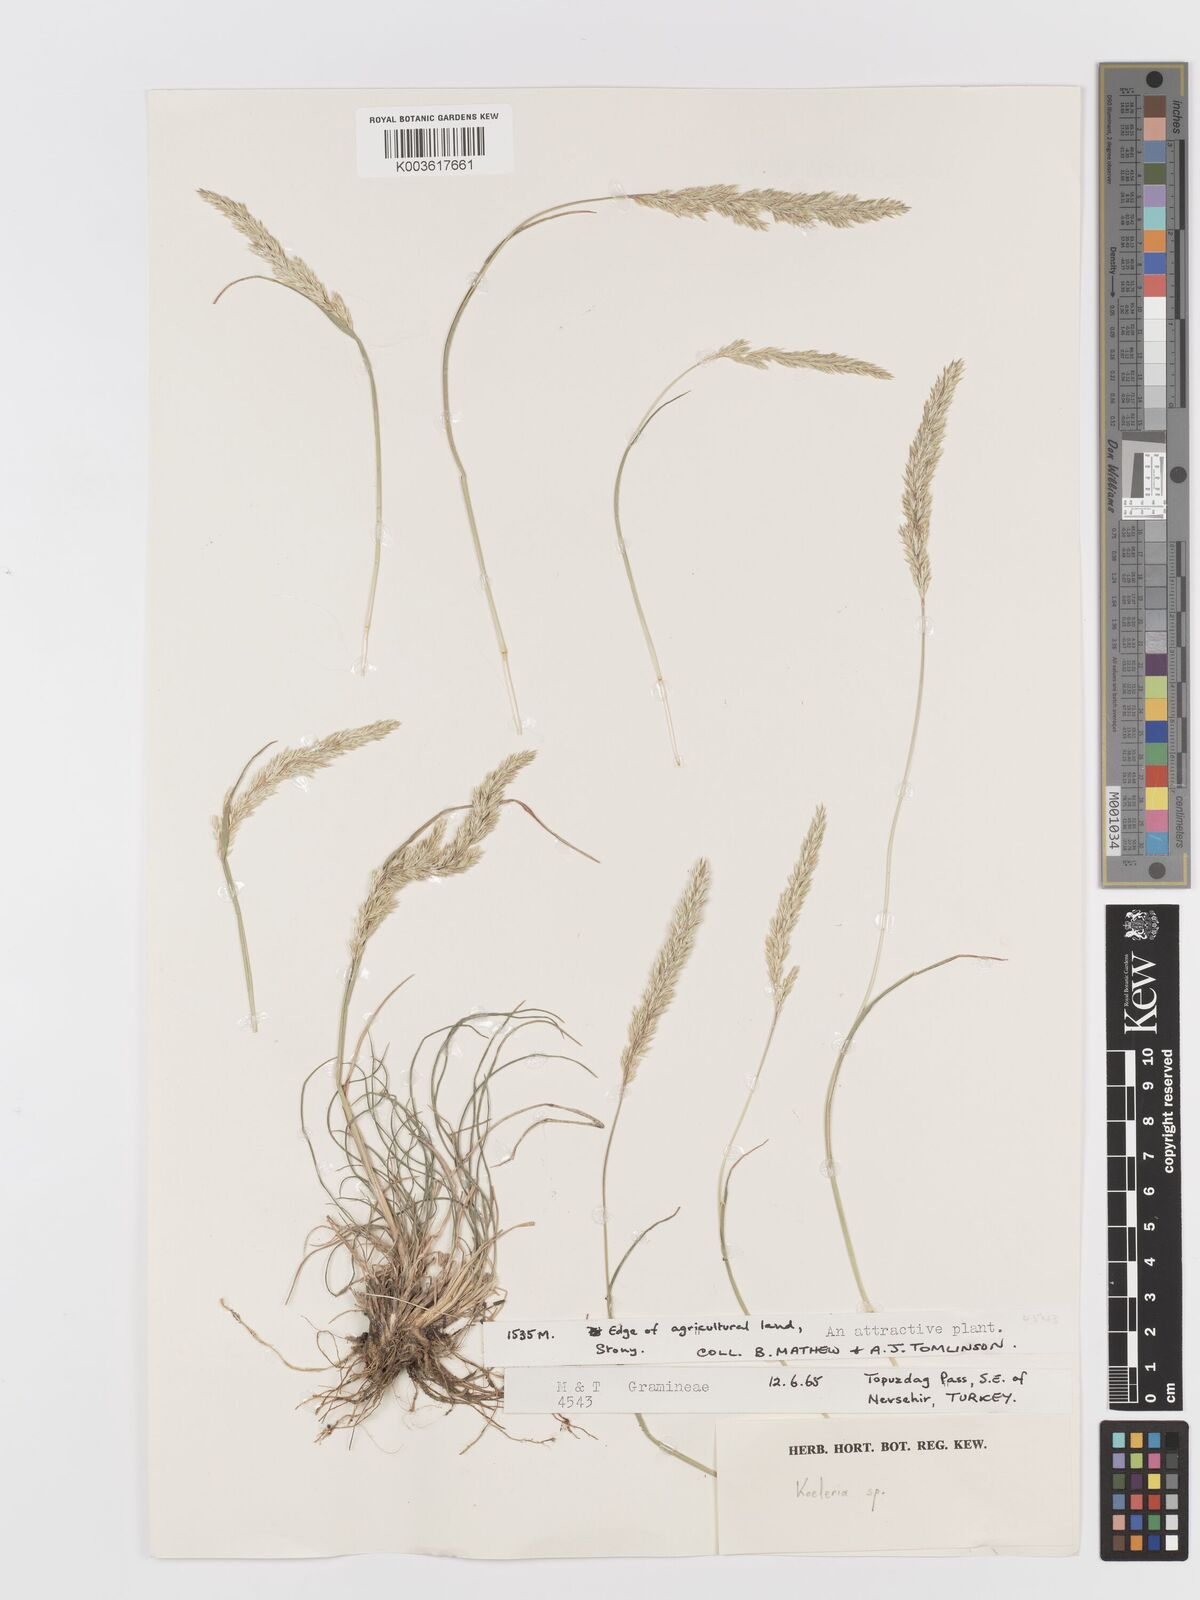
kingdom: Plantae
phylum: Tracheophyta
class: Liliopsida
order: Poales
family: Poaceae
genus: Koeleria
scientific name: Koeleria
